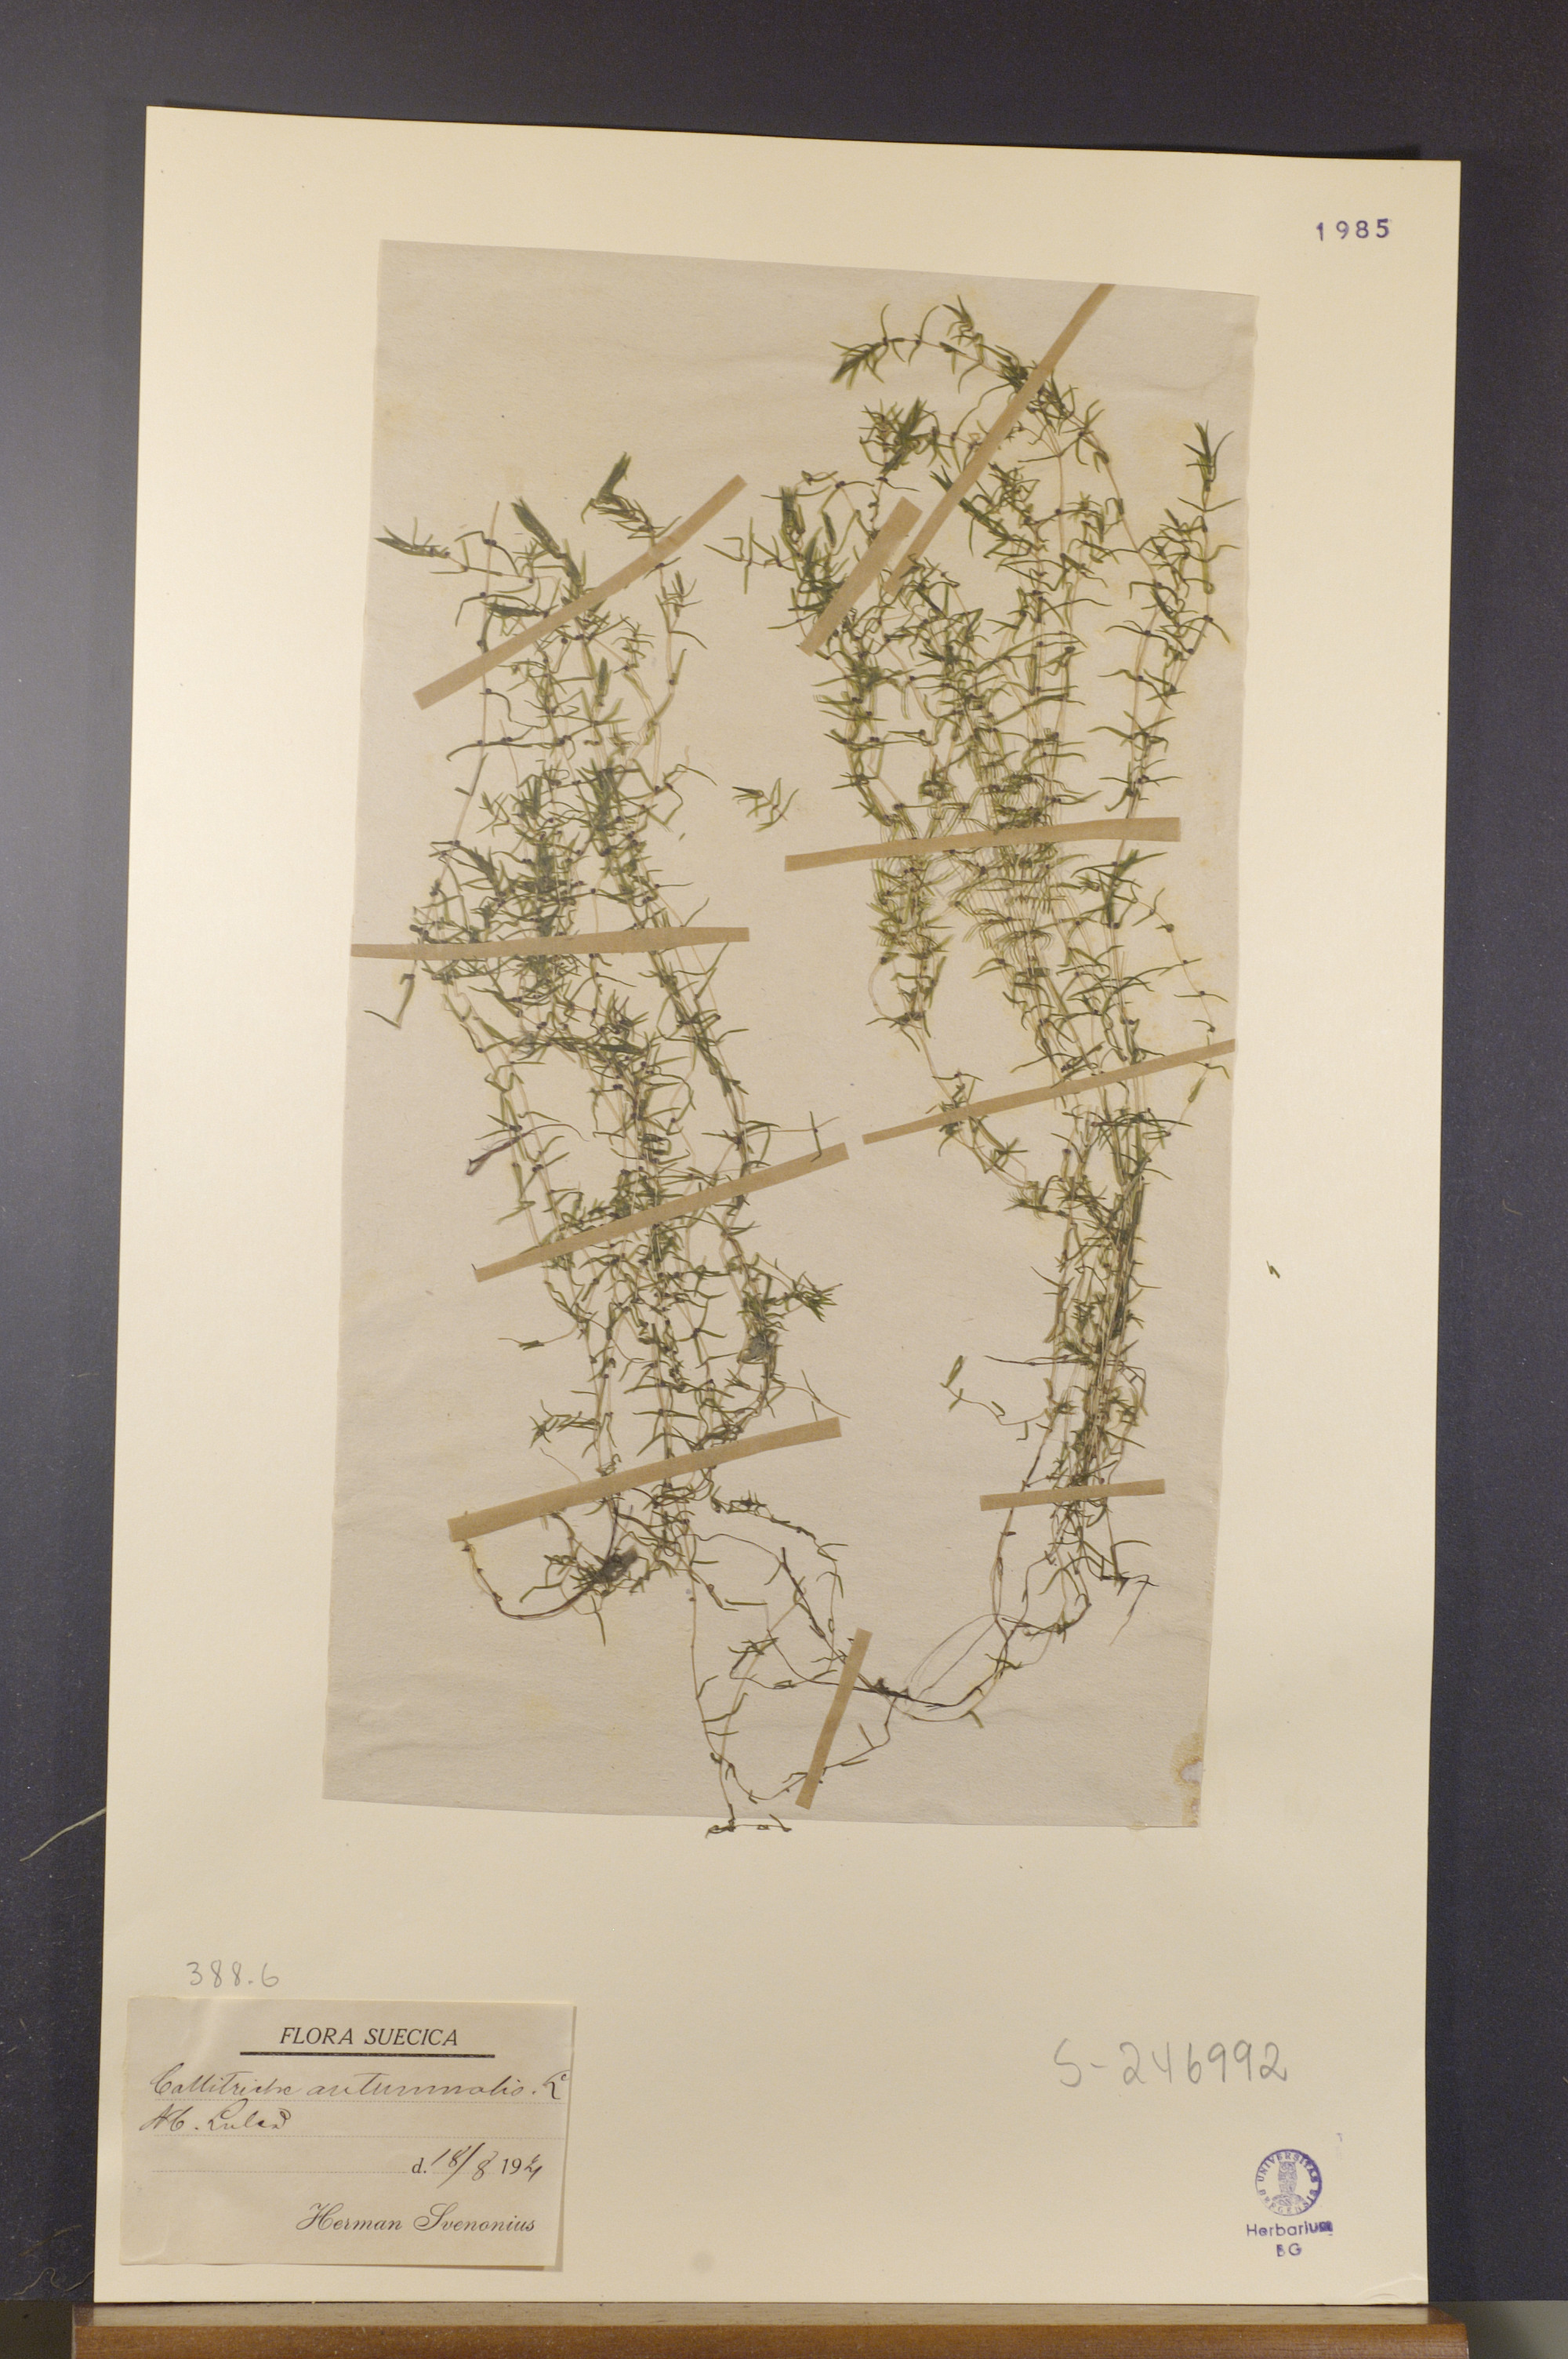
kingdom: Plantae
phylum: Tracheophyta
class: Magnoliopsida
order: Lamiales
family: Plantaginaceae
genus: Callitriche
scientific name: Callitriche hermaphroditica
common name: Autumnal water-starwort
